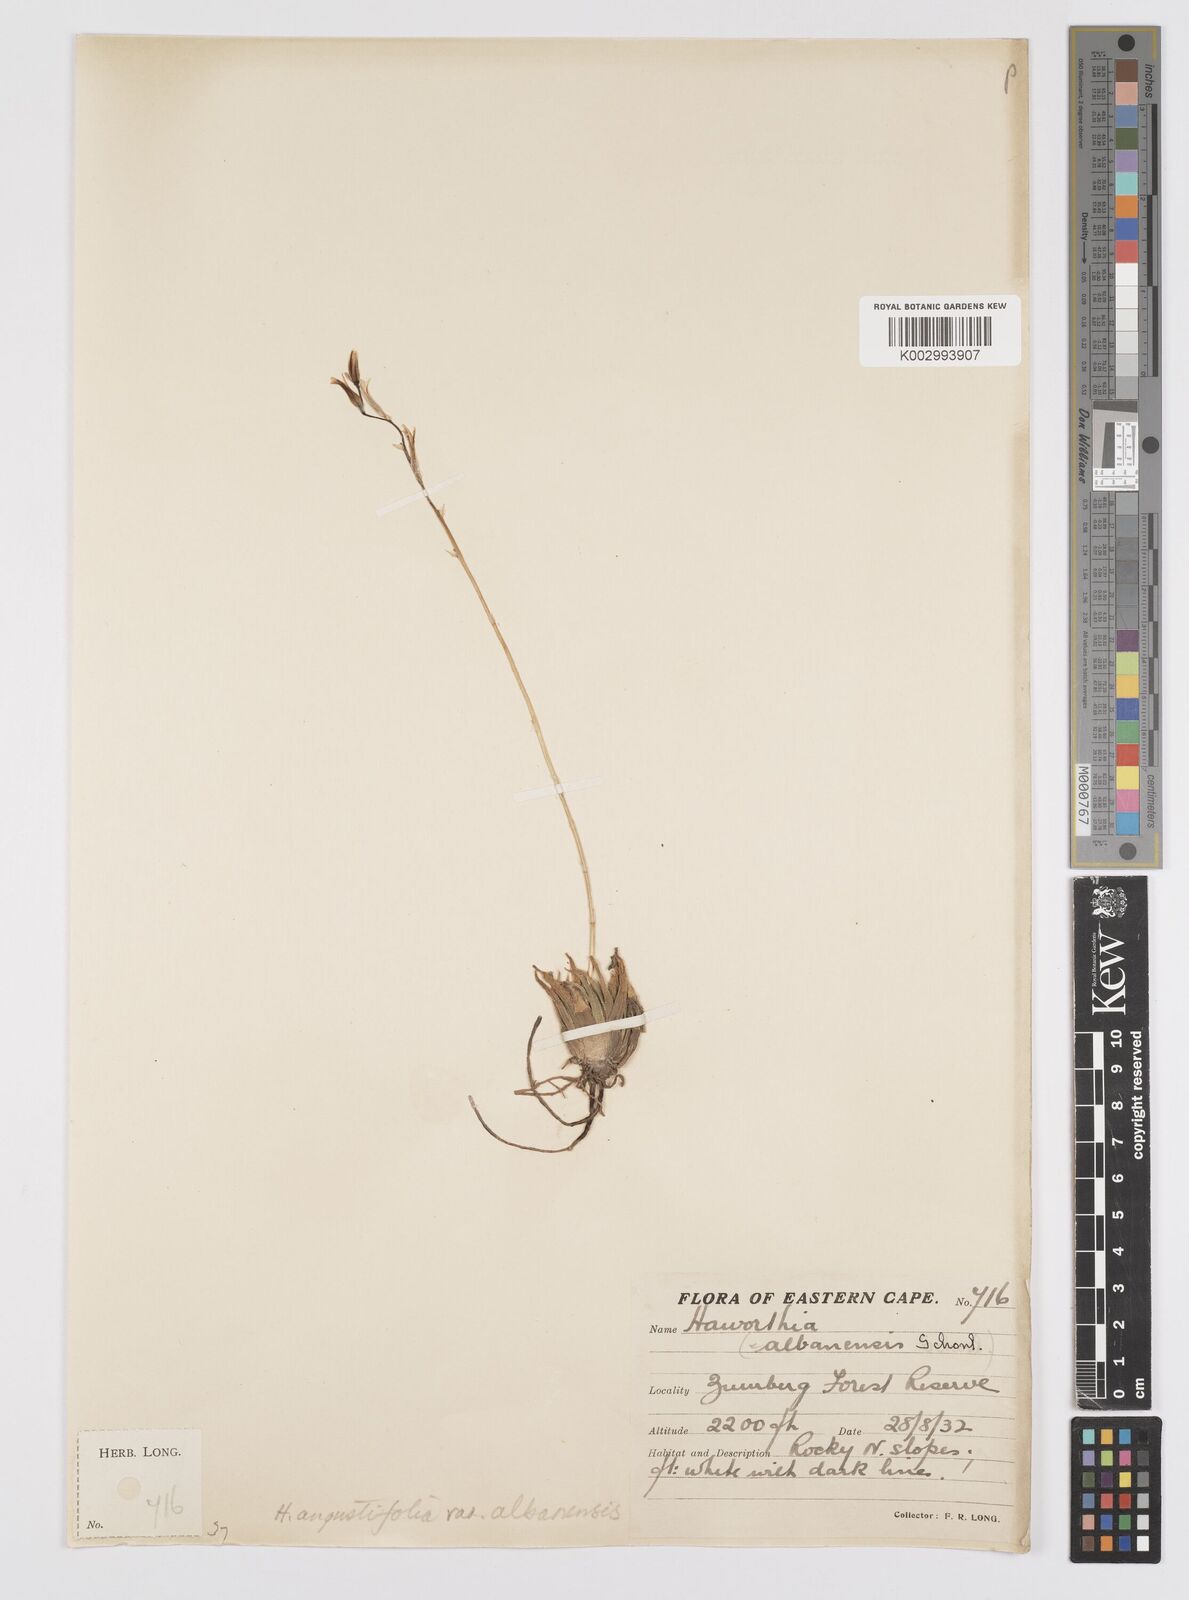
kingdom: Plantae
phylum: Tracheophyta
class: Liliopsida
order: Asparagales
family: Asphodelaceae
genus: Haworthia
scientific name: Haworthia
